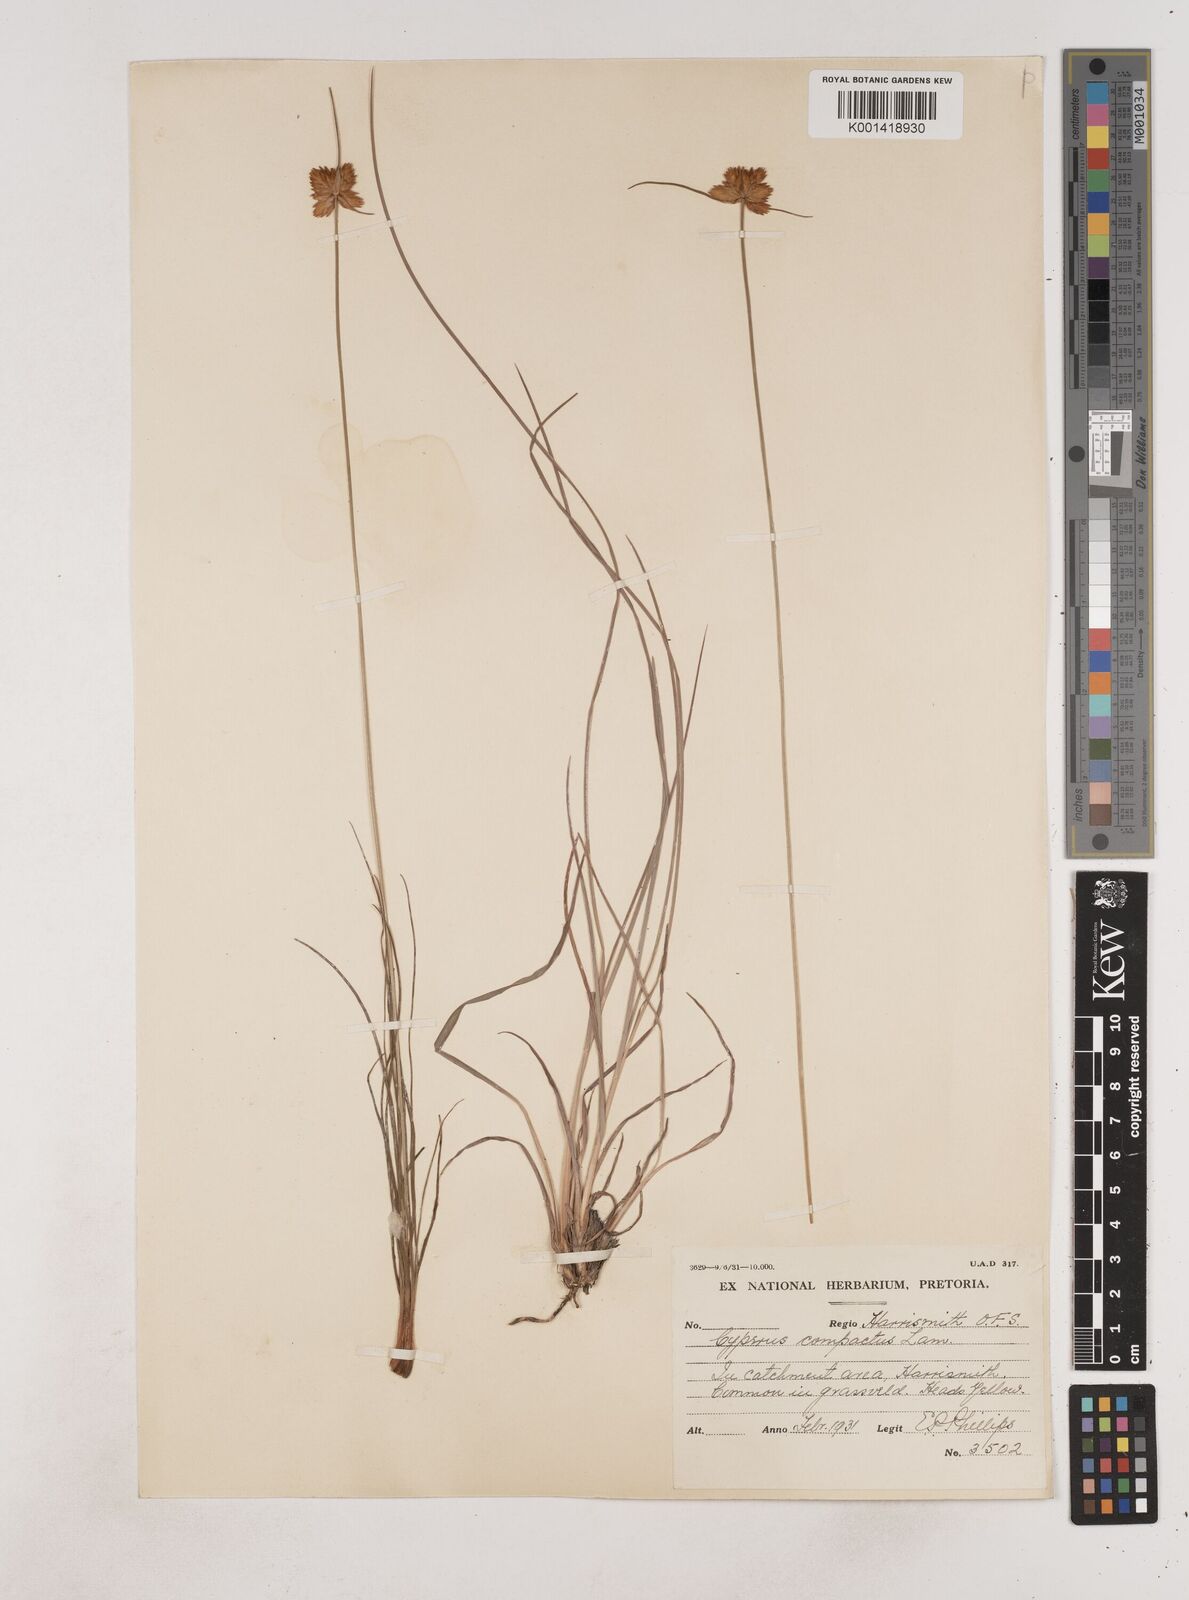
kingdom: Plantae
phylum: Tracheophyta
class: Liliopsida
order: Poales
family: Cyperaceae
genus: Cyperus
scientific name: Cyperus sphaerocephalus
